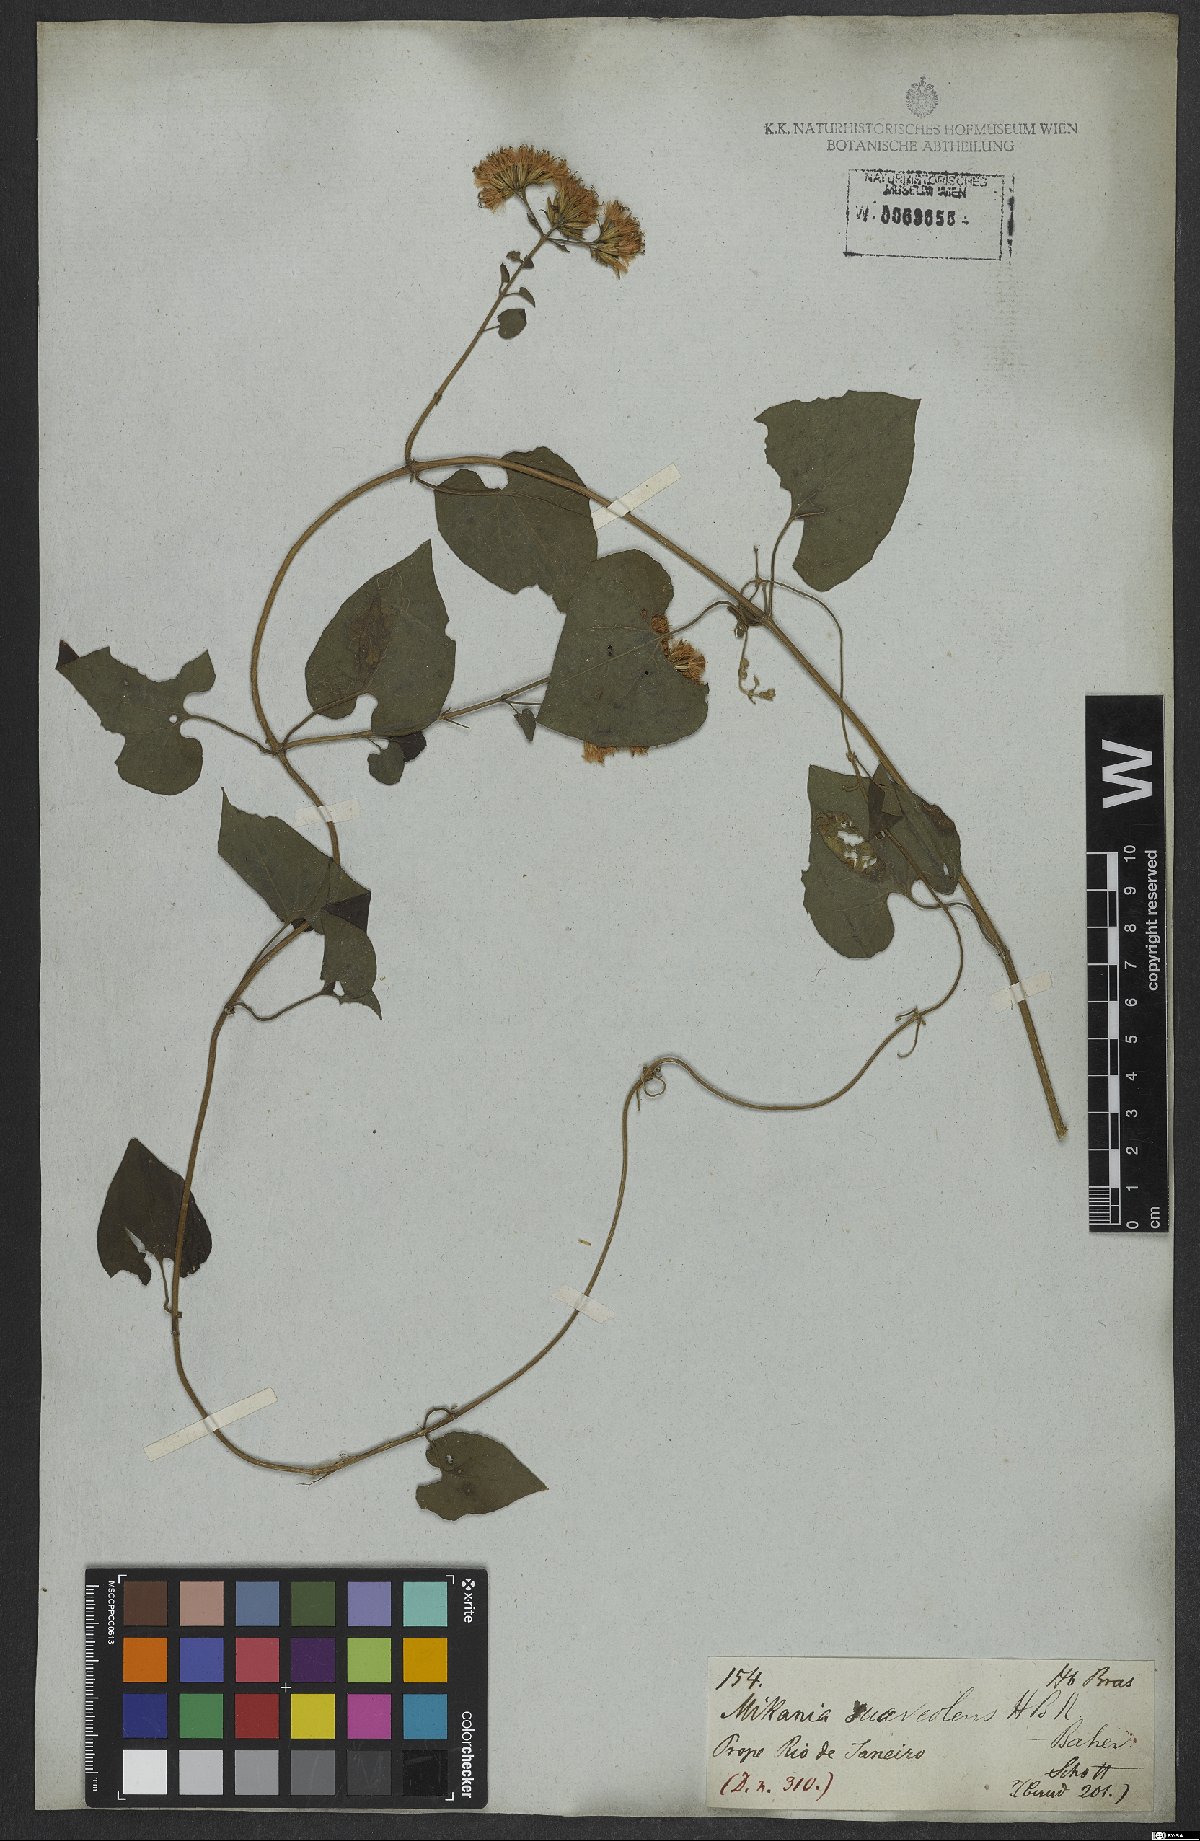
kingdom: Plantae
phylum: Tracheophyta
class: Magnoliopsida
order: Asterales
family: Asteraceae
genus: Mikania
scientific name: Mikania cordifolia
